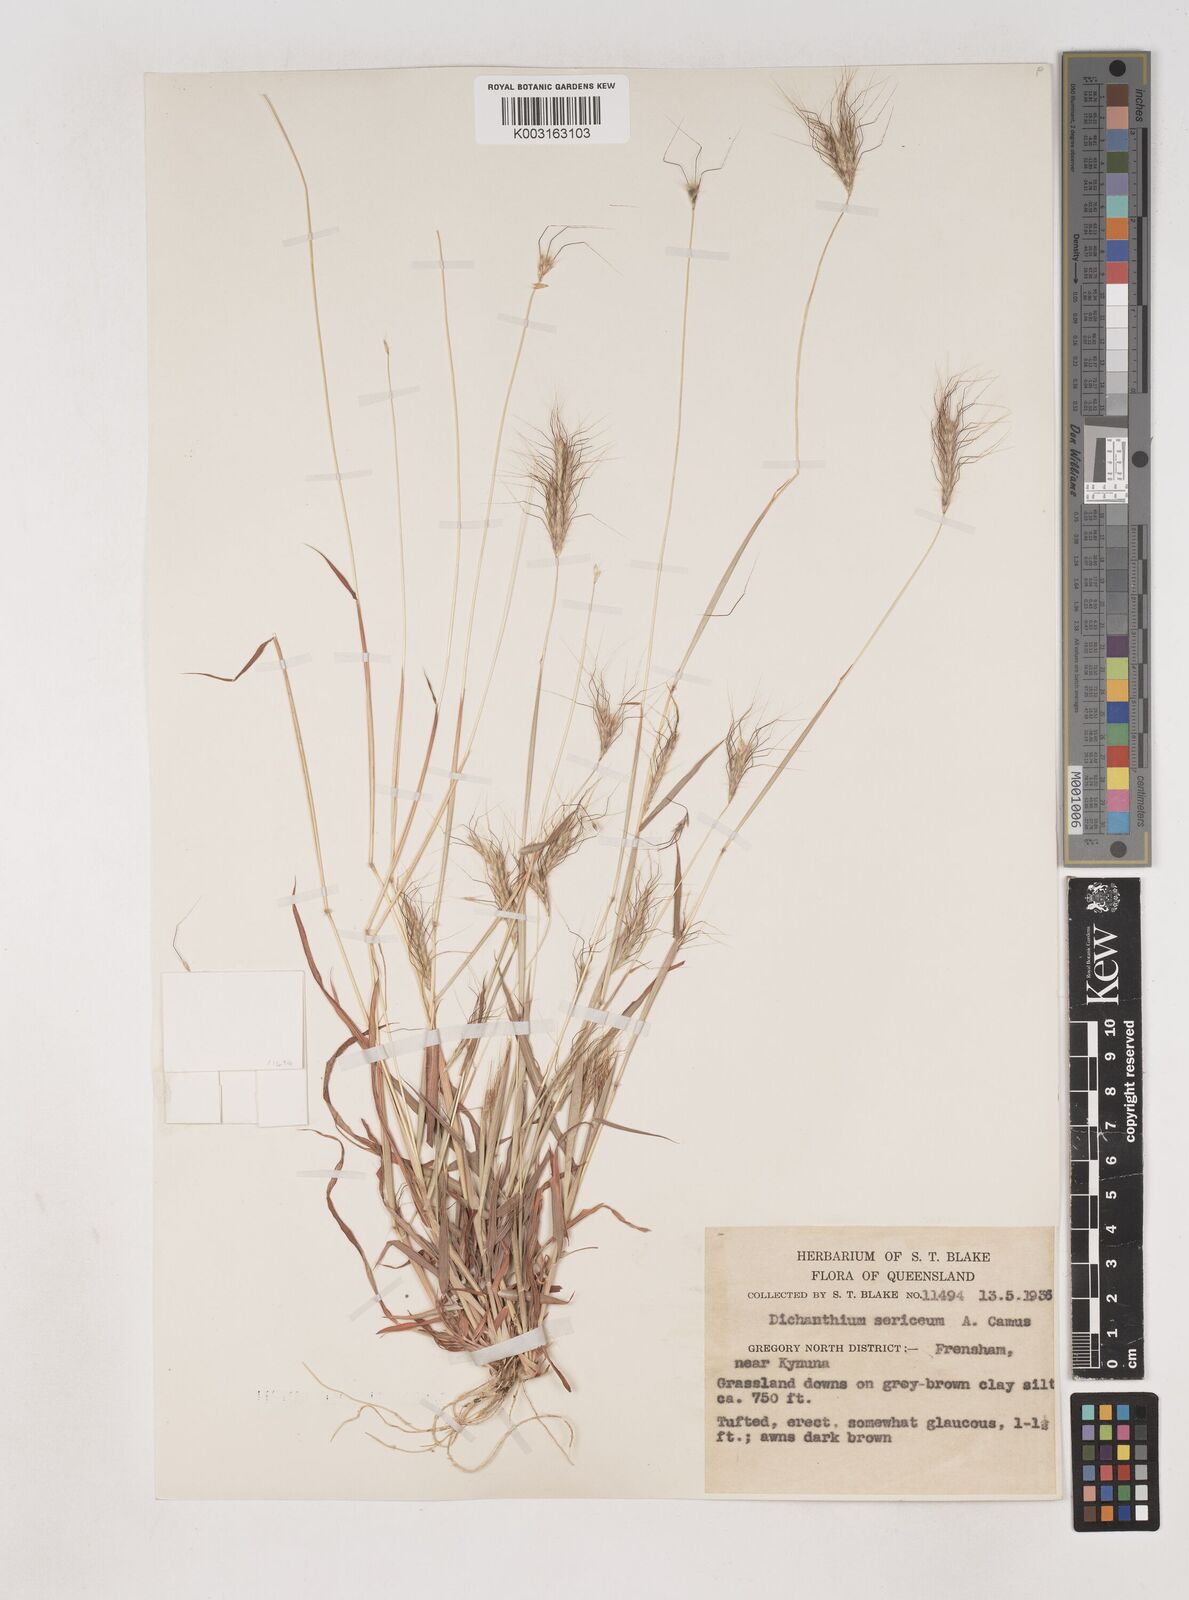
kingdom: Plantae
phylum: Tracheophyta
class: Liliopsida
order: Poales
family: Poaceae
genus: Dichanthium
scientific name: Dichanthium sericeum
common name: Silky bluestem
